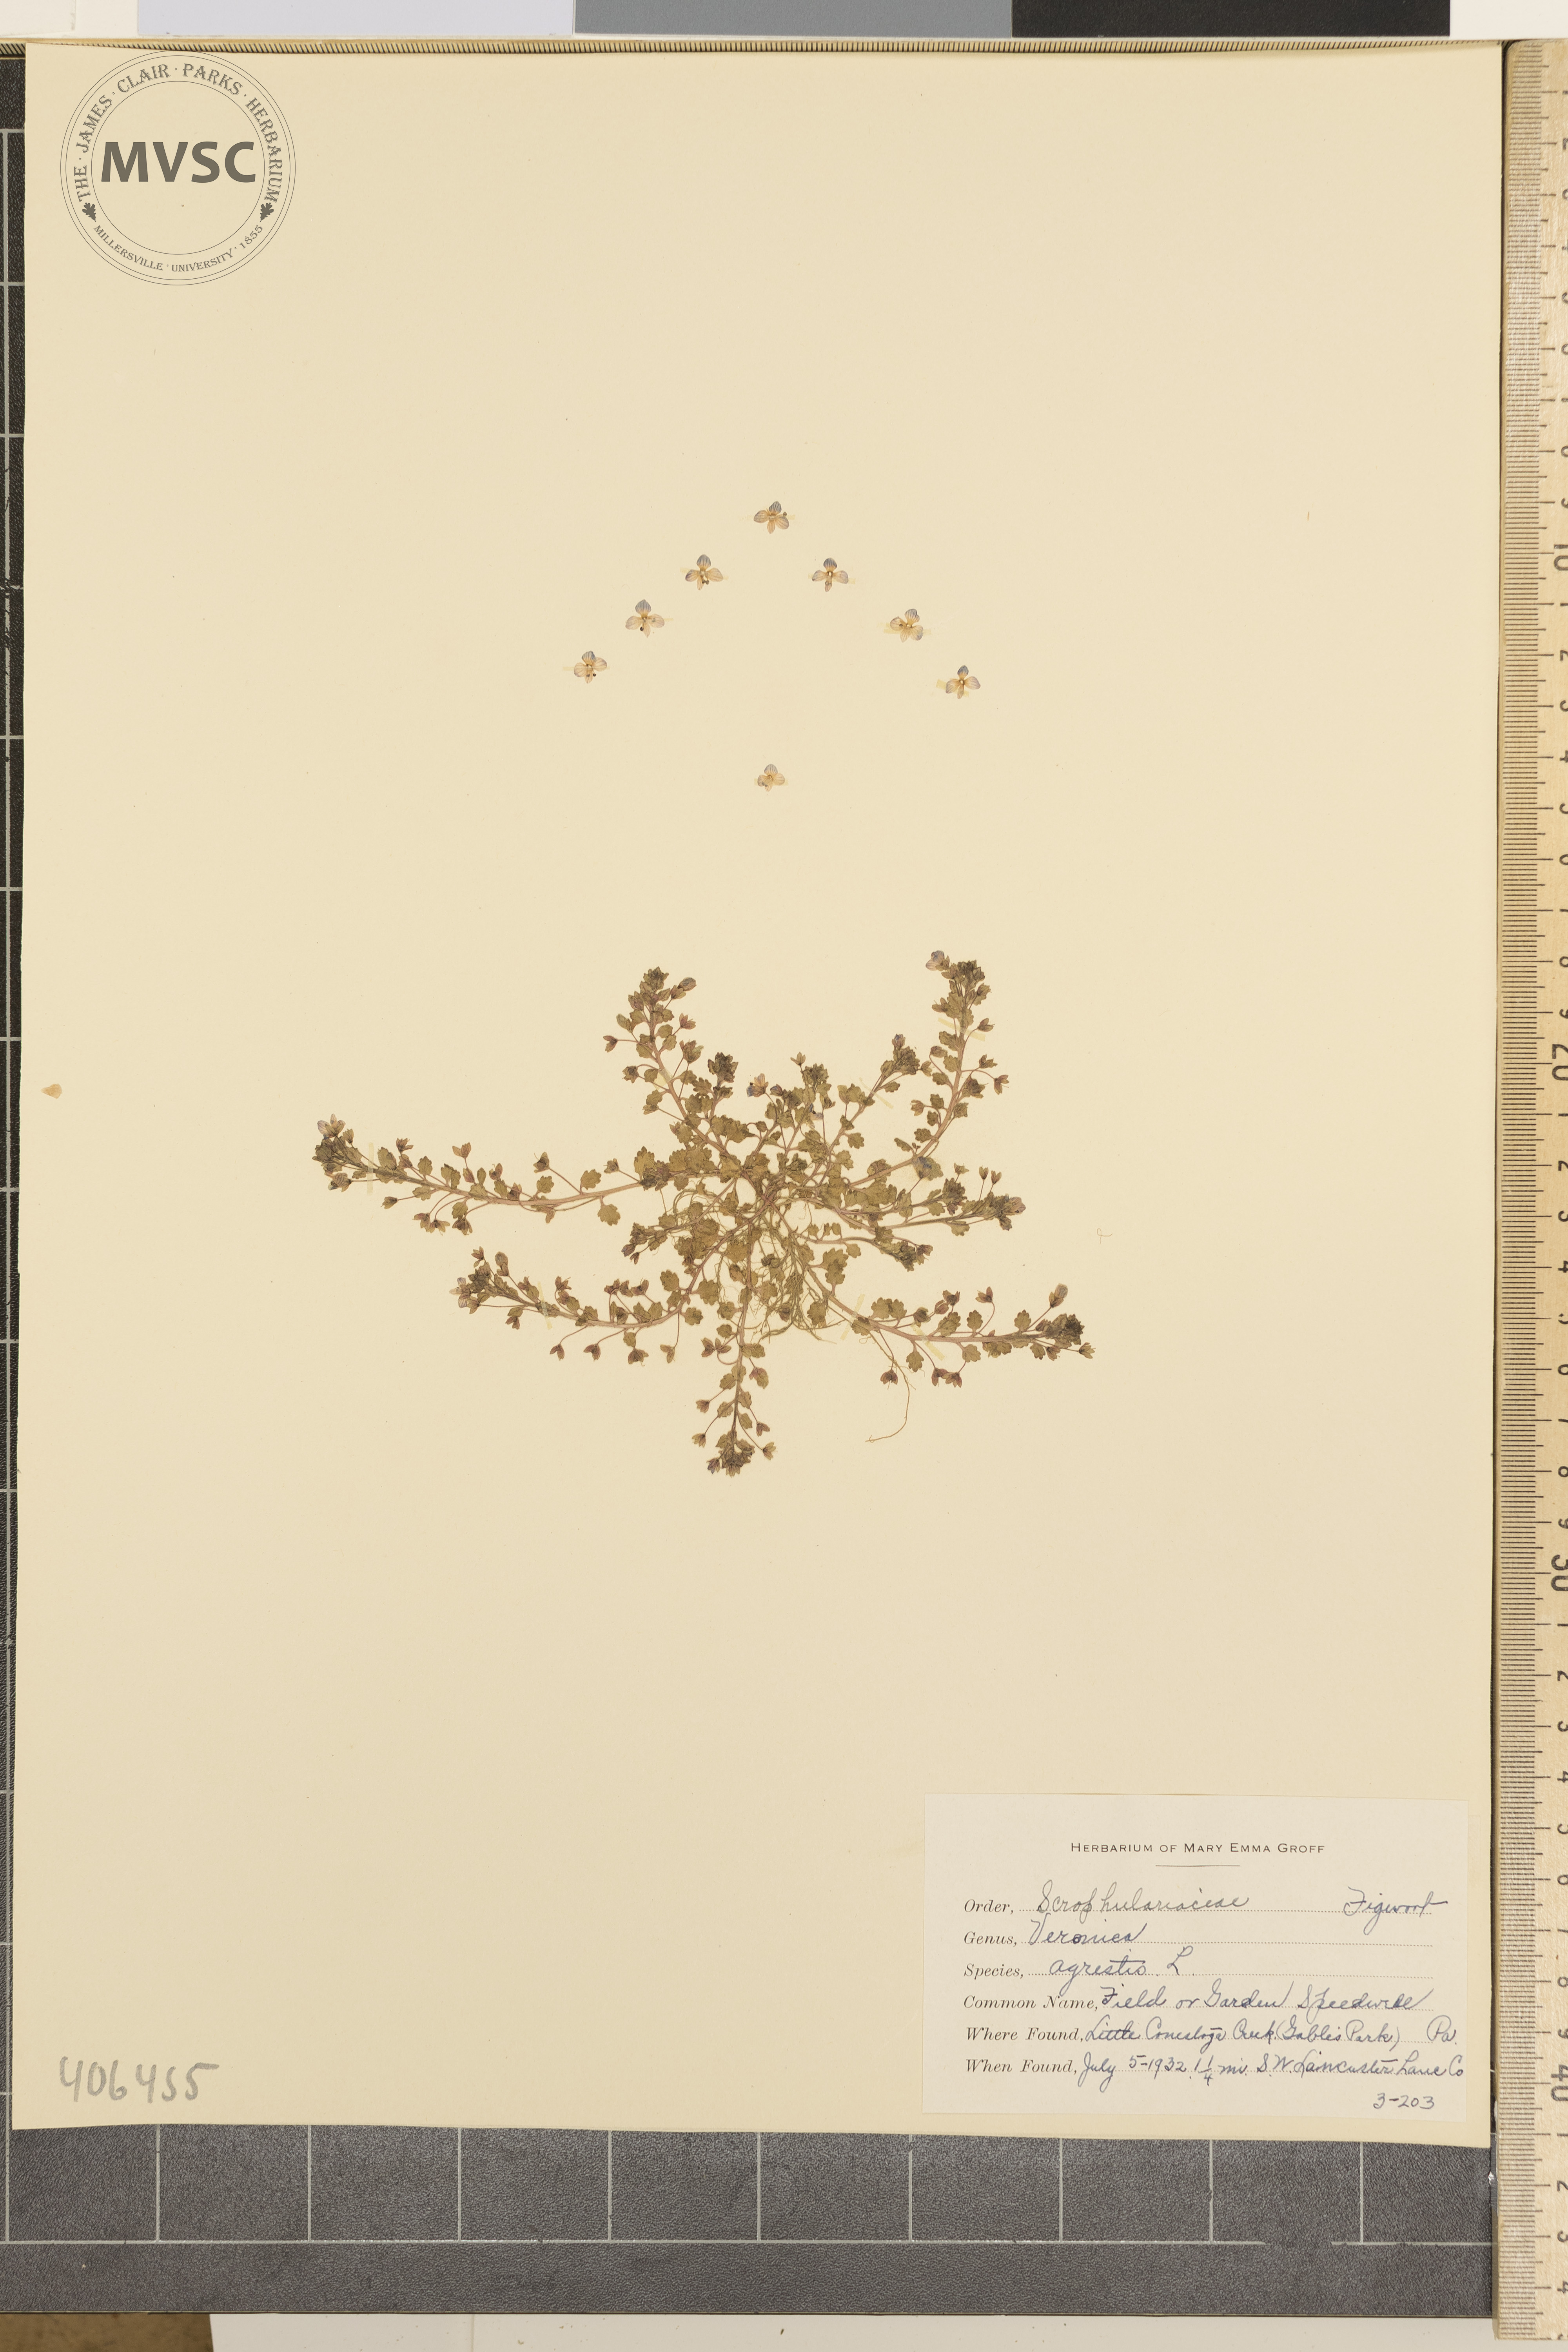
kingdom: Plantae
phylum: Tracheophyta
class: Magnoliopsida
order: Lamiales
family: Plantaginaceae
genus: Veronica
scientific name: Veronica agrestis
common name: Green field-speedwell
